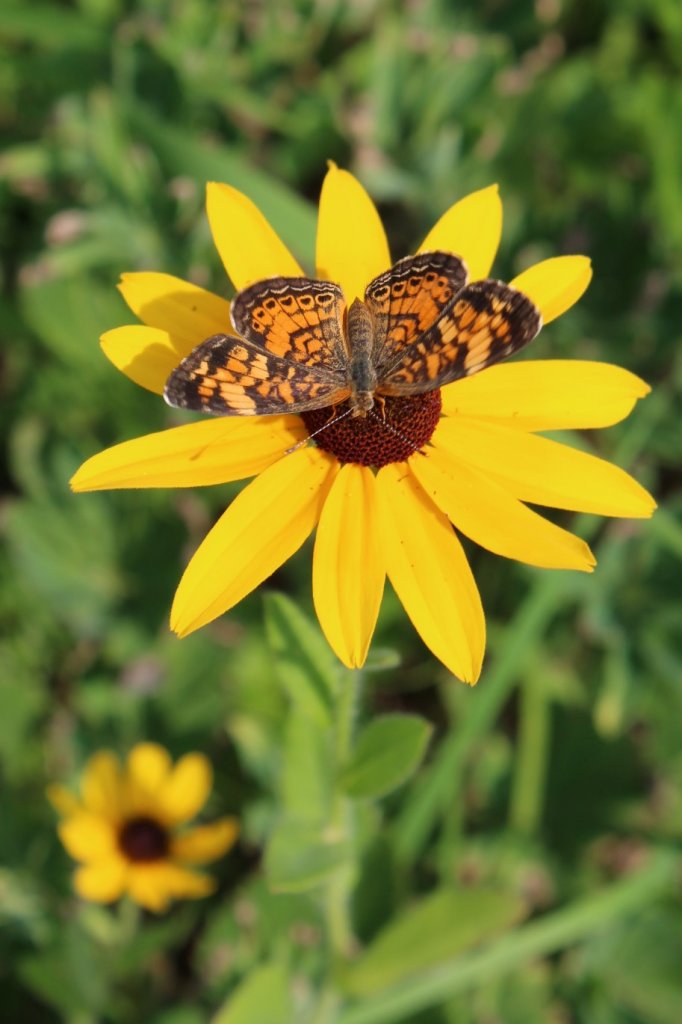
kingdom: Animalia
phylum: Arthropoda
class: Insecta
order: Lepidoptera
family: Nymphalidae
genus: Phyciodes
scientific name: Phyciodes tharos
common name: Pearl Crescent
